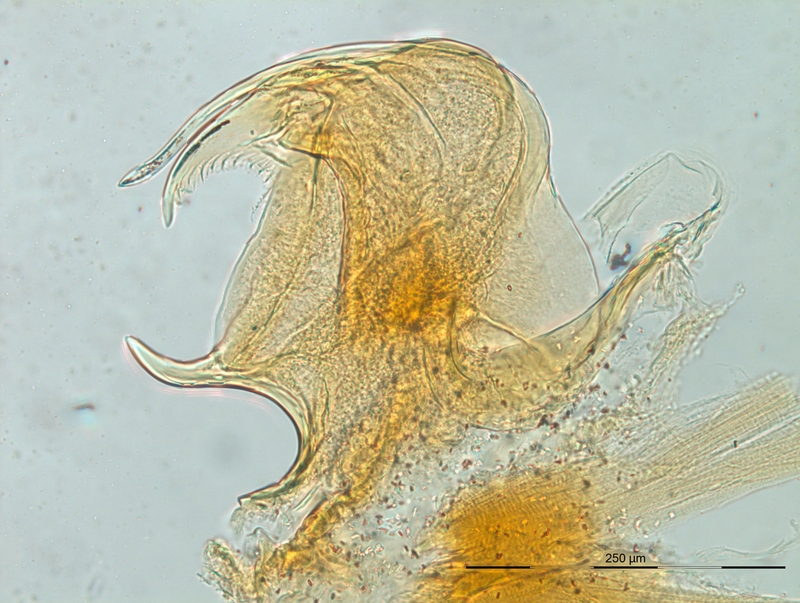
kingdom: Animalia
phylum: Arthropoda
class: Diplopoda
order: Chordeumatida
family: Craspedosomatidae
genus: Macheiriophoron
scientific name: Macheiriophoron verhoeffi
